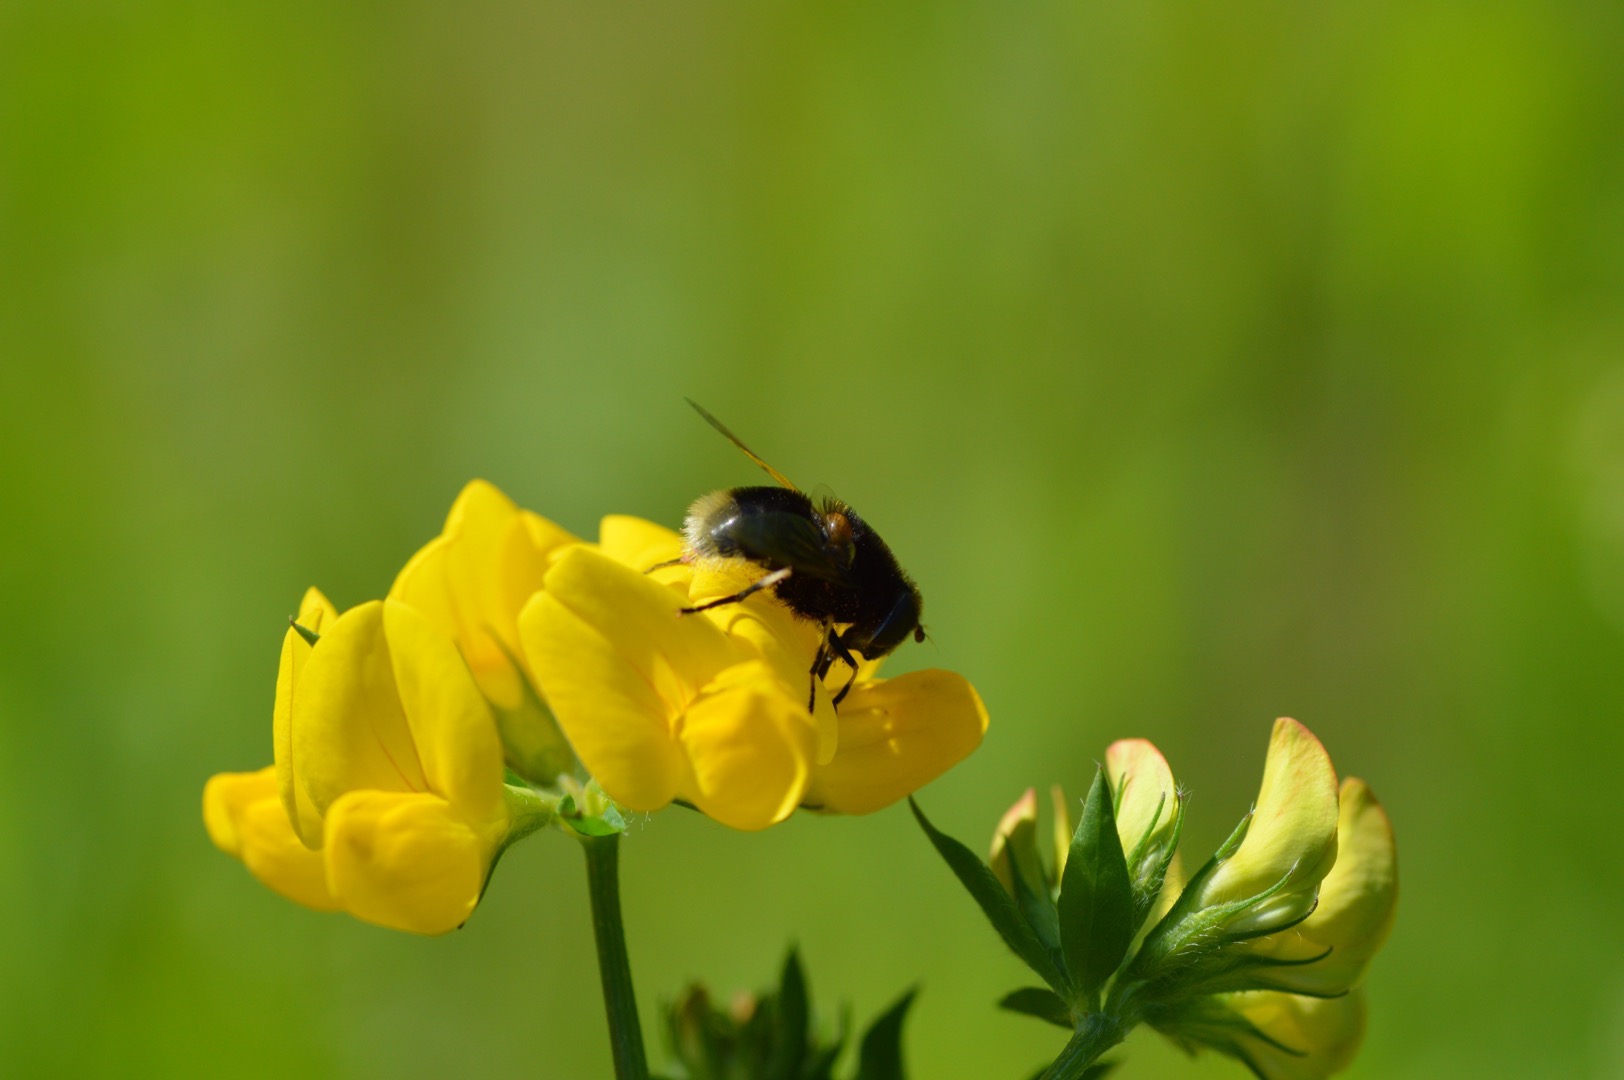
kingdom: Animalia
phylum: Arthropoda
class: Insecta
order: Diptera
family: Syrphidae
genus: Eristalis
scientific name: Eristalis intricaria
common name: Håret dyndflue
